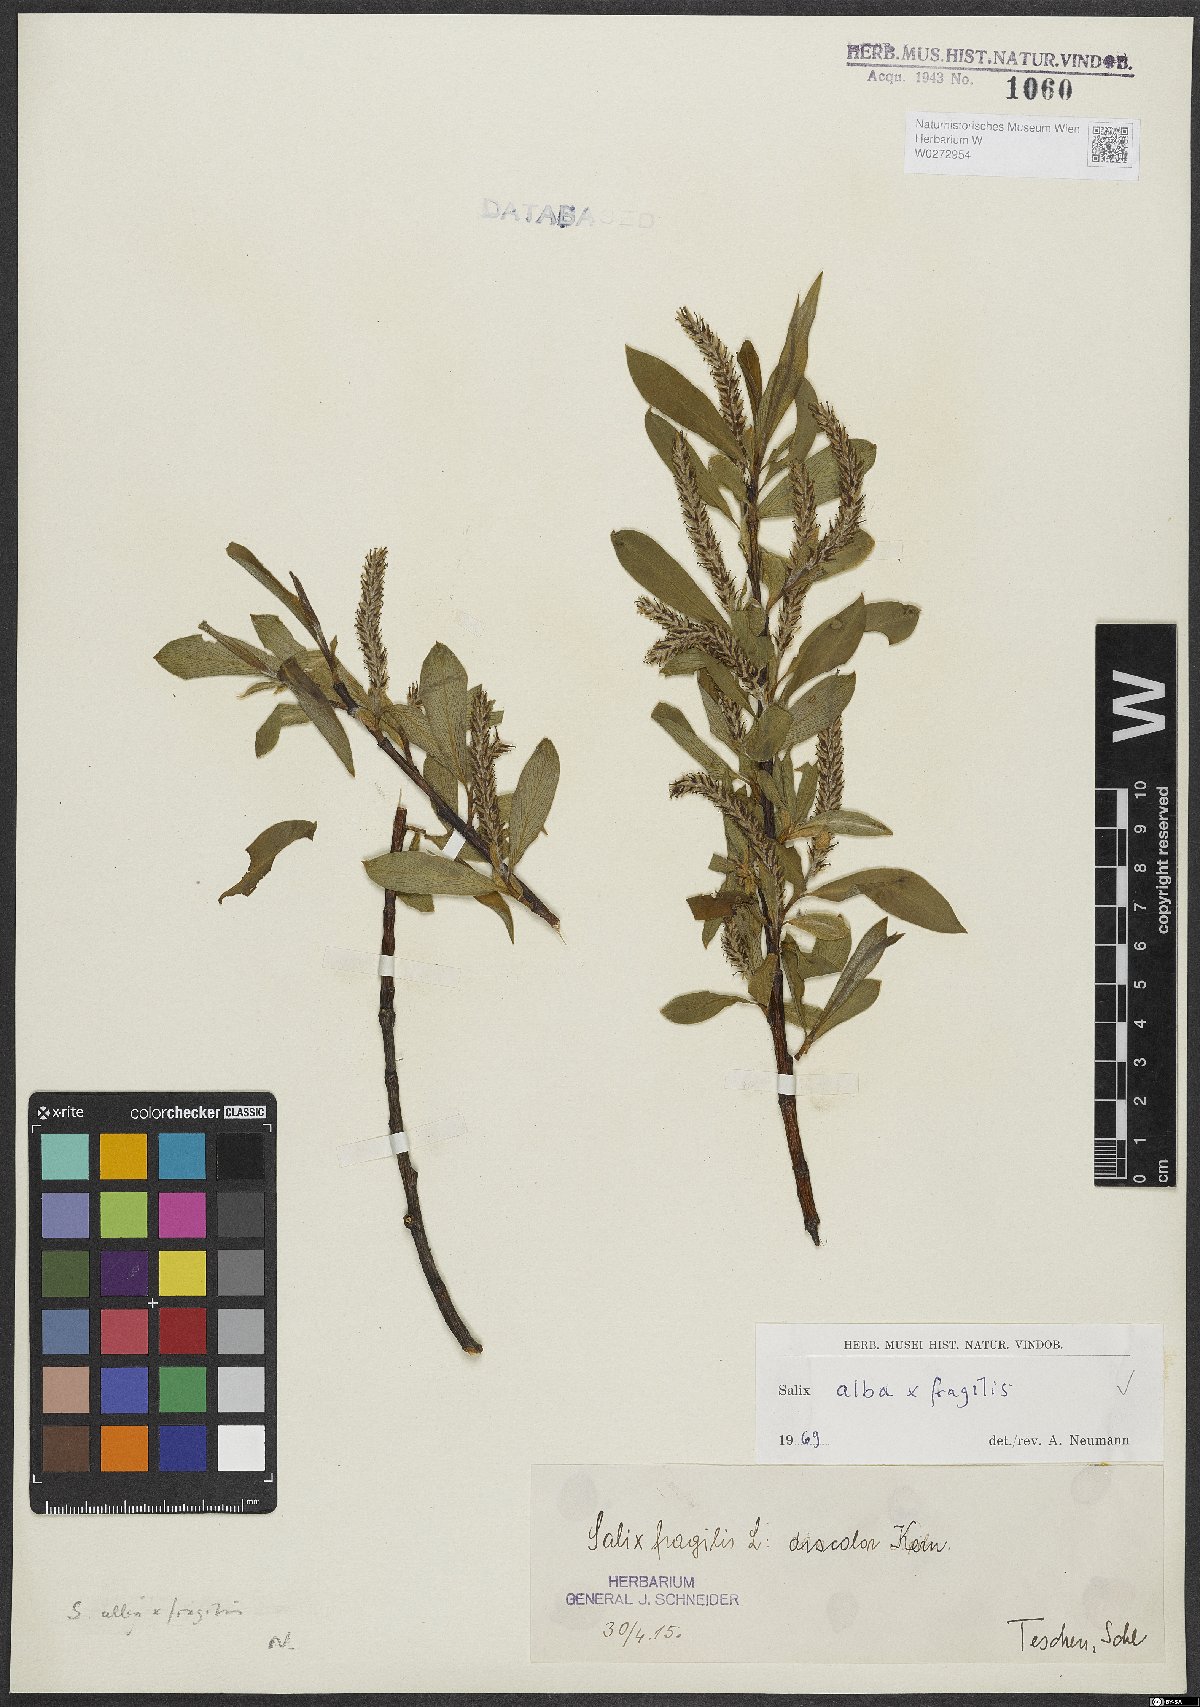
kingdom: Plantae
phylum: Tracheophyta
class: Magnoliopsida
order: Malpighiales
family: Salicaceae
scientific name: Salicaceae
